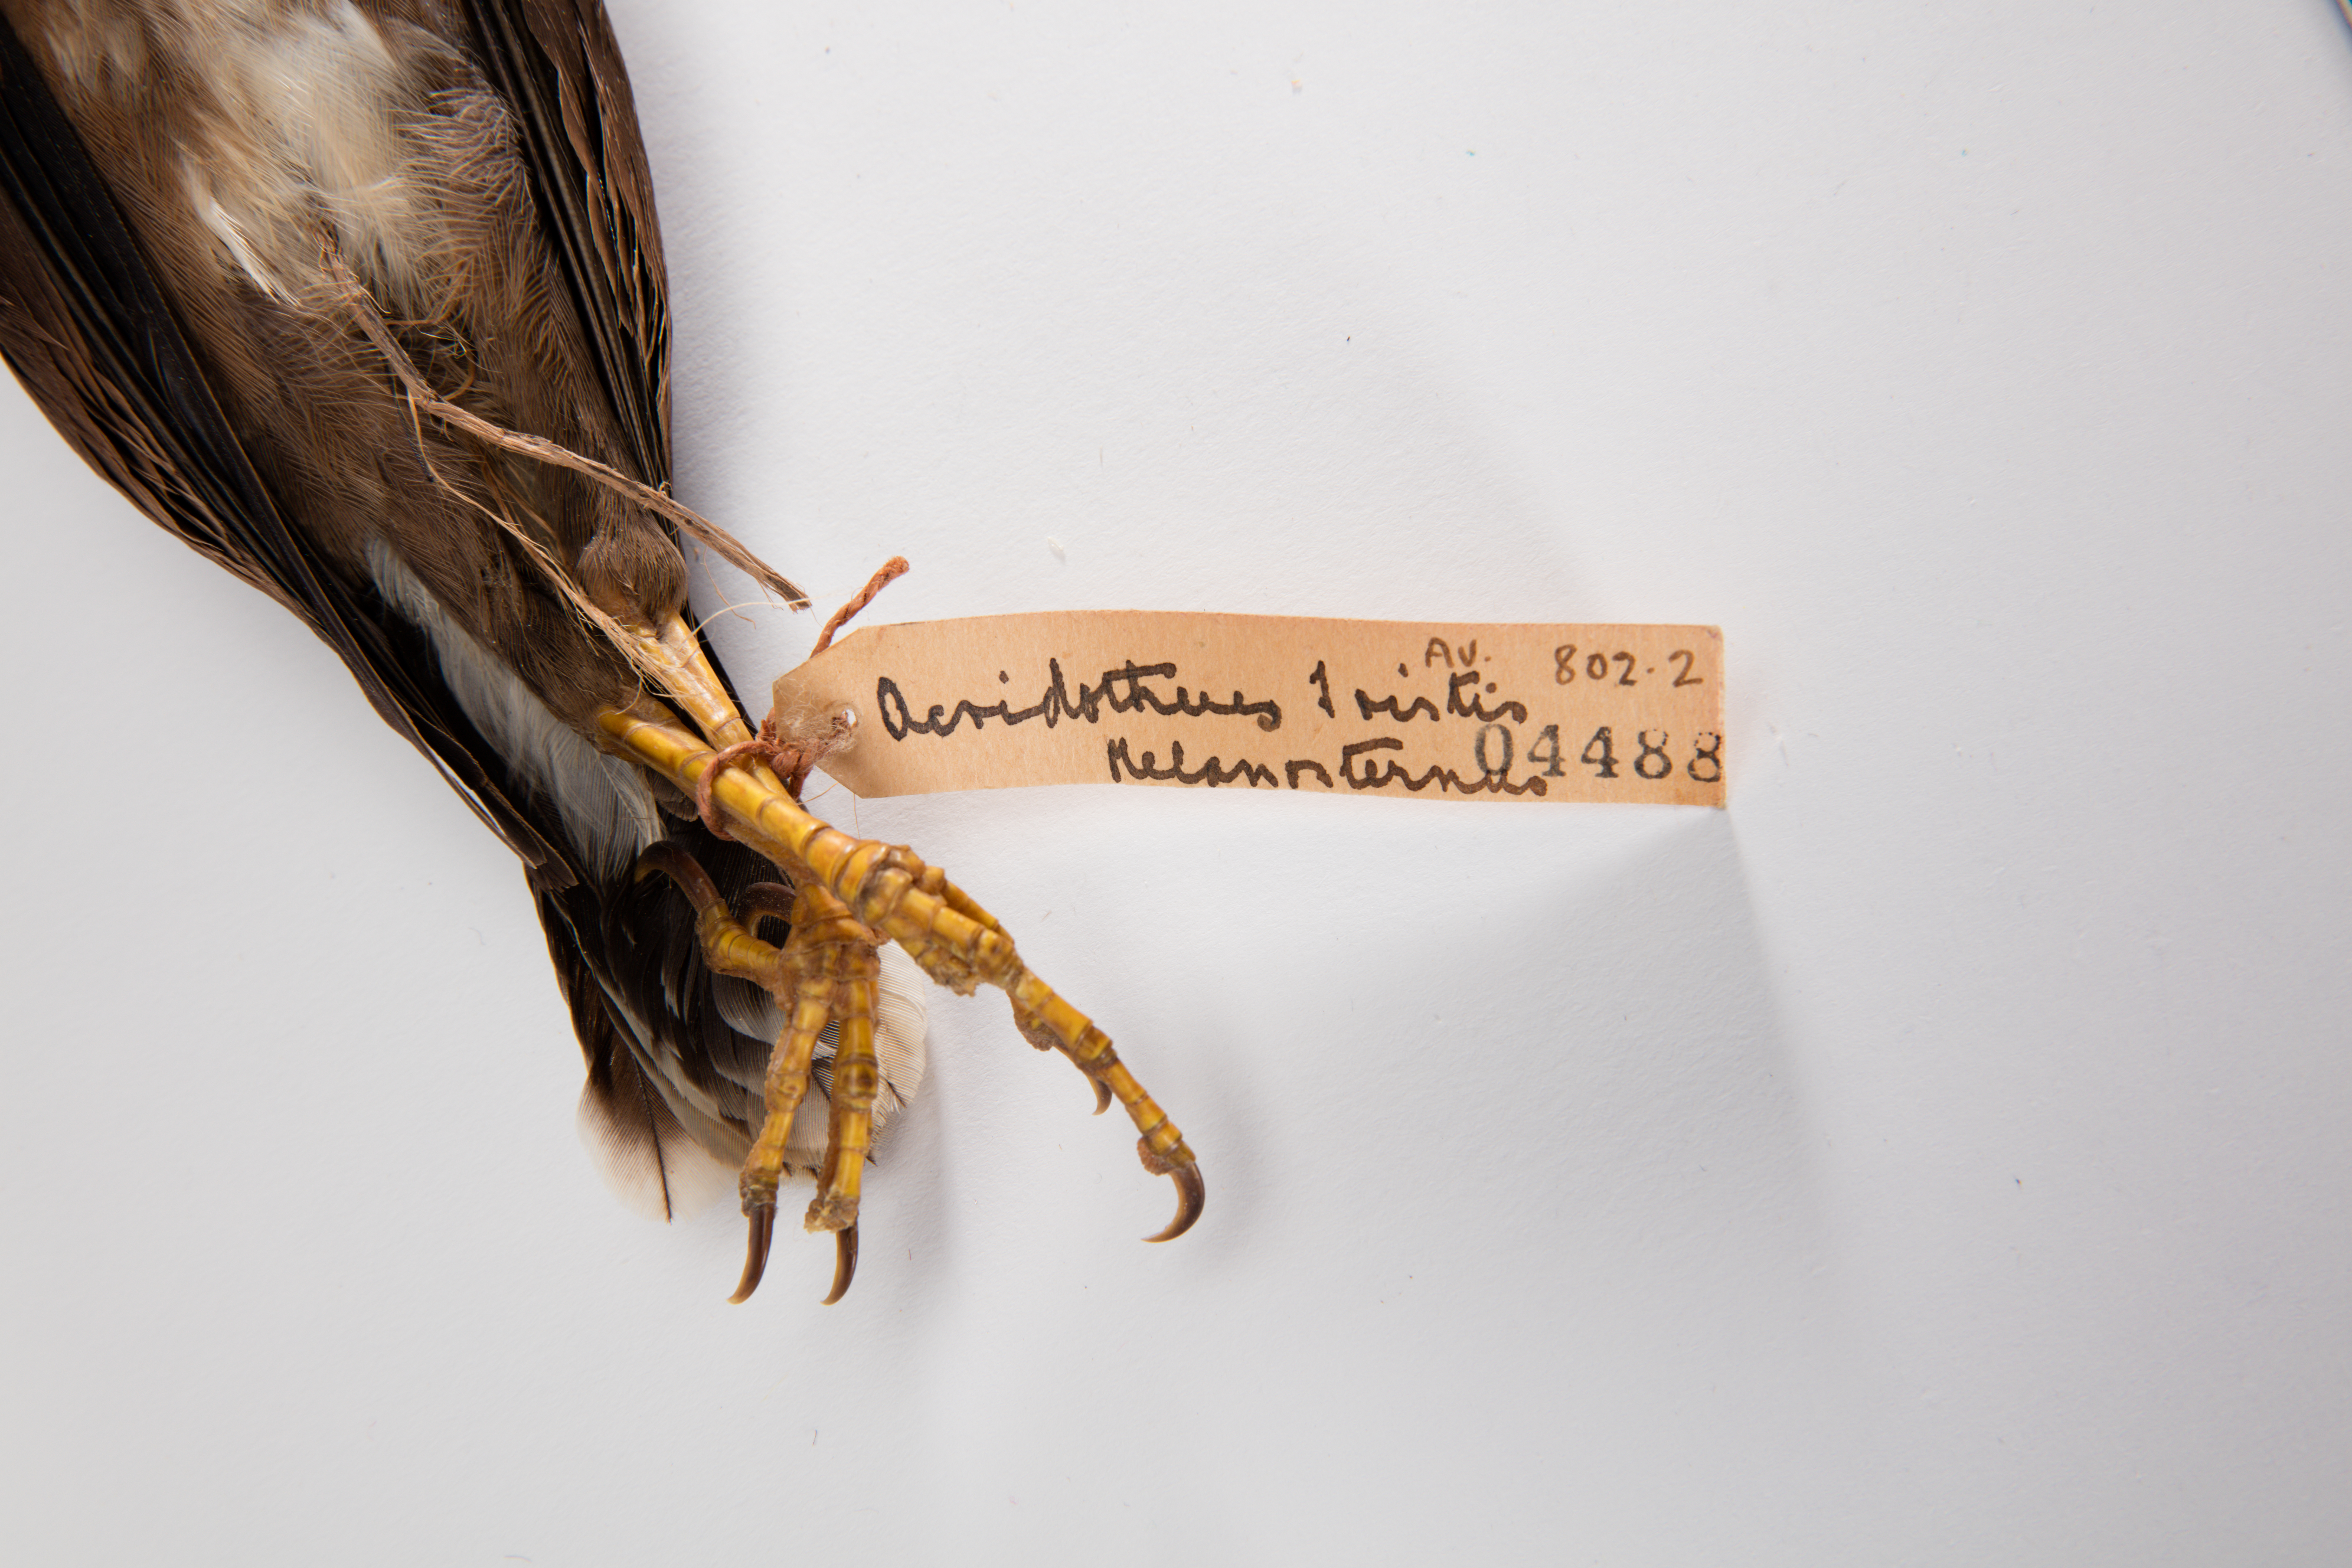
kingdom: Animalia
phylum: Chordata
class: Aves
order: Passeriformes
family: Sturnidae
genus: Acridotheres
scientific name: Acridotheres tristis
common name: Common myna
